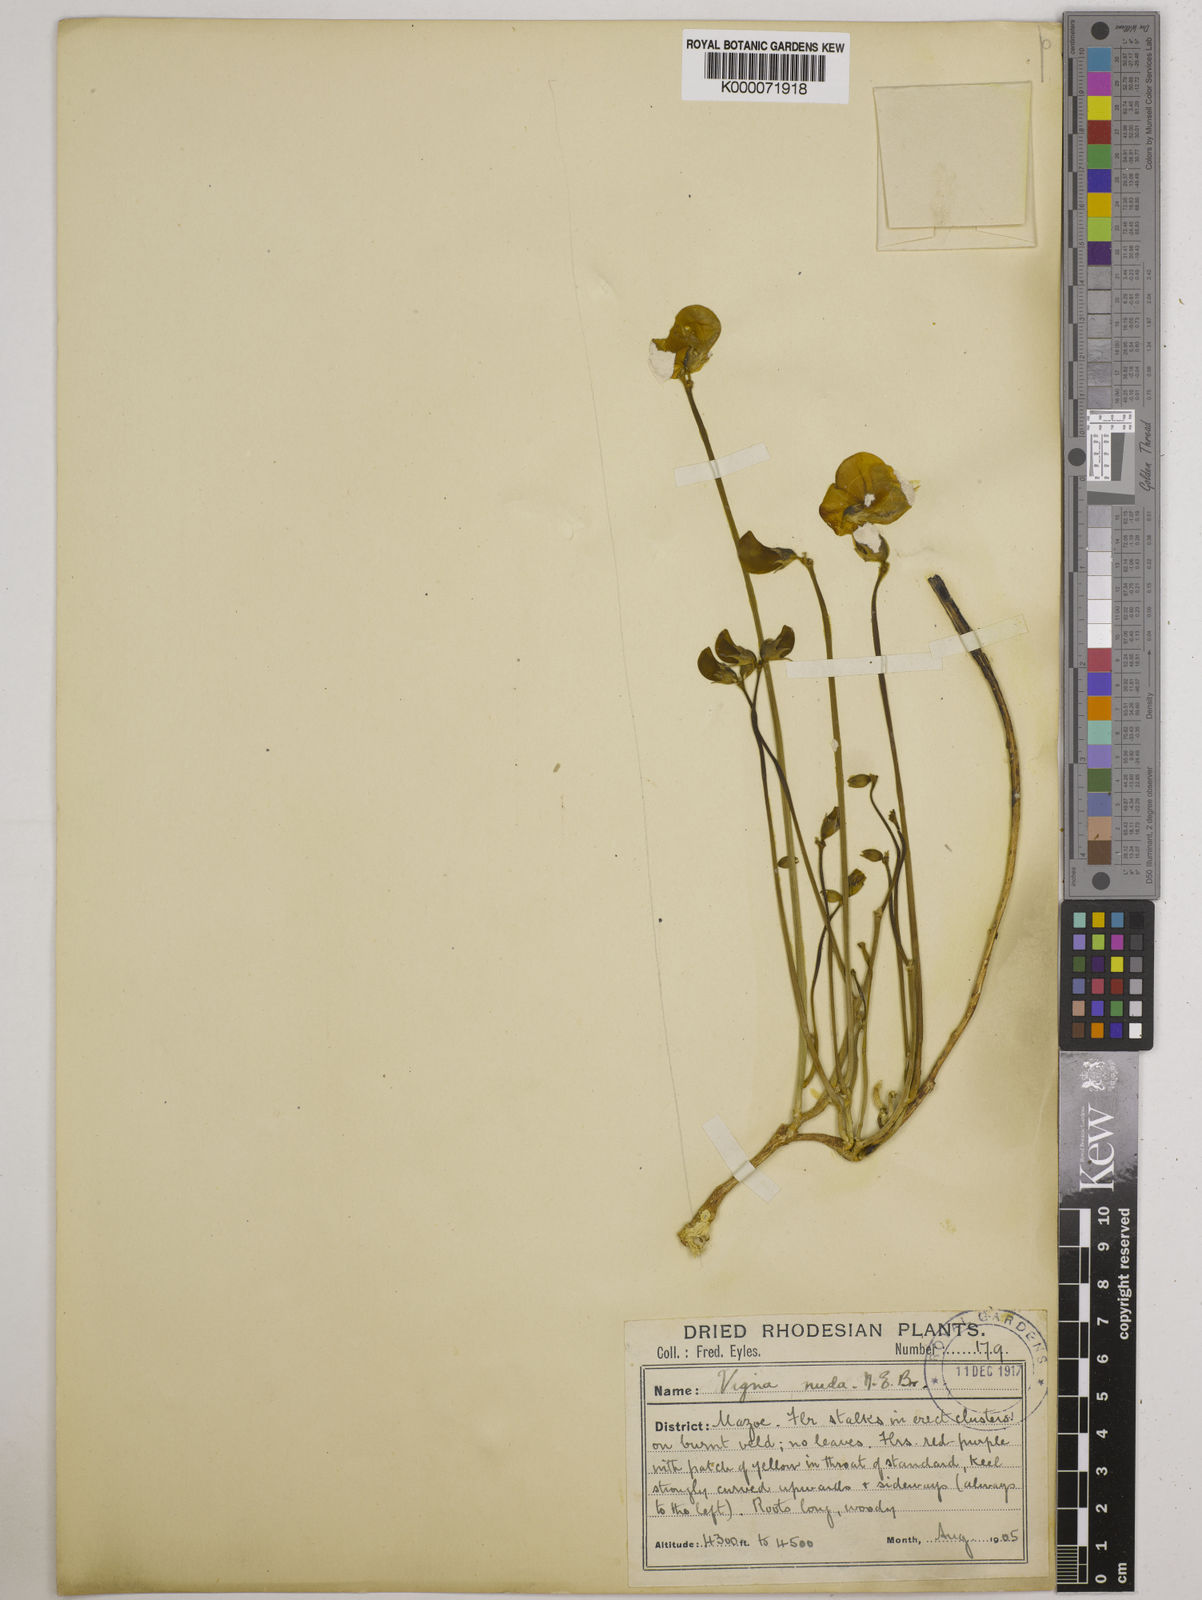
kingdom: Plantae
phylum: Tracheophyta
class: Magnoliopsida
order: Fabales
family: Fabaceae
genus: Vigna
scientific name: Vigna antunesii
